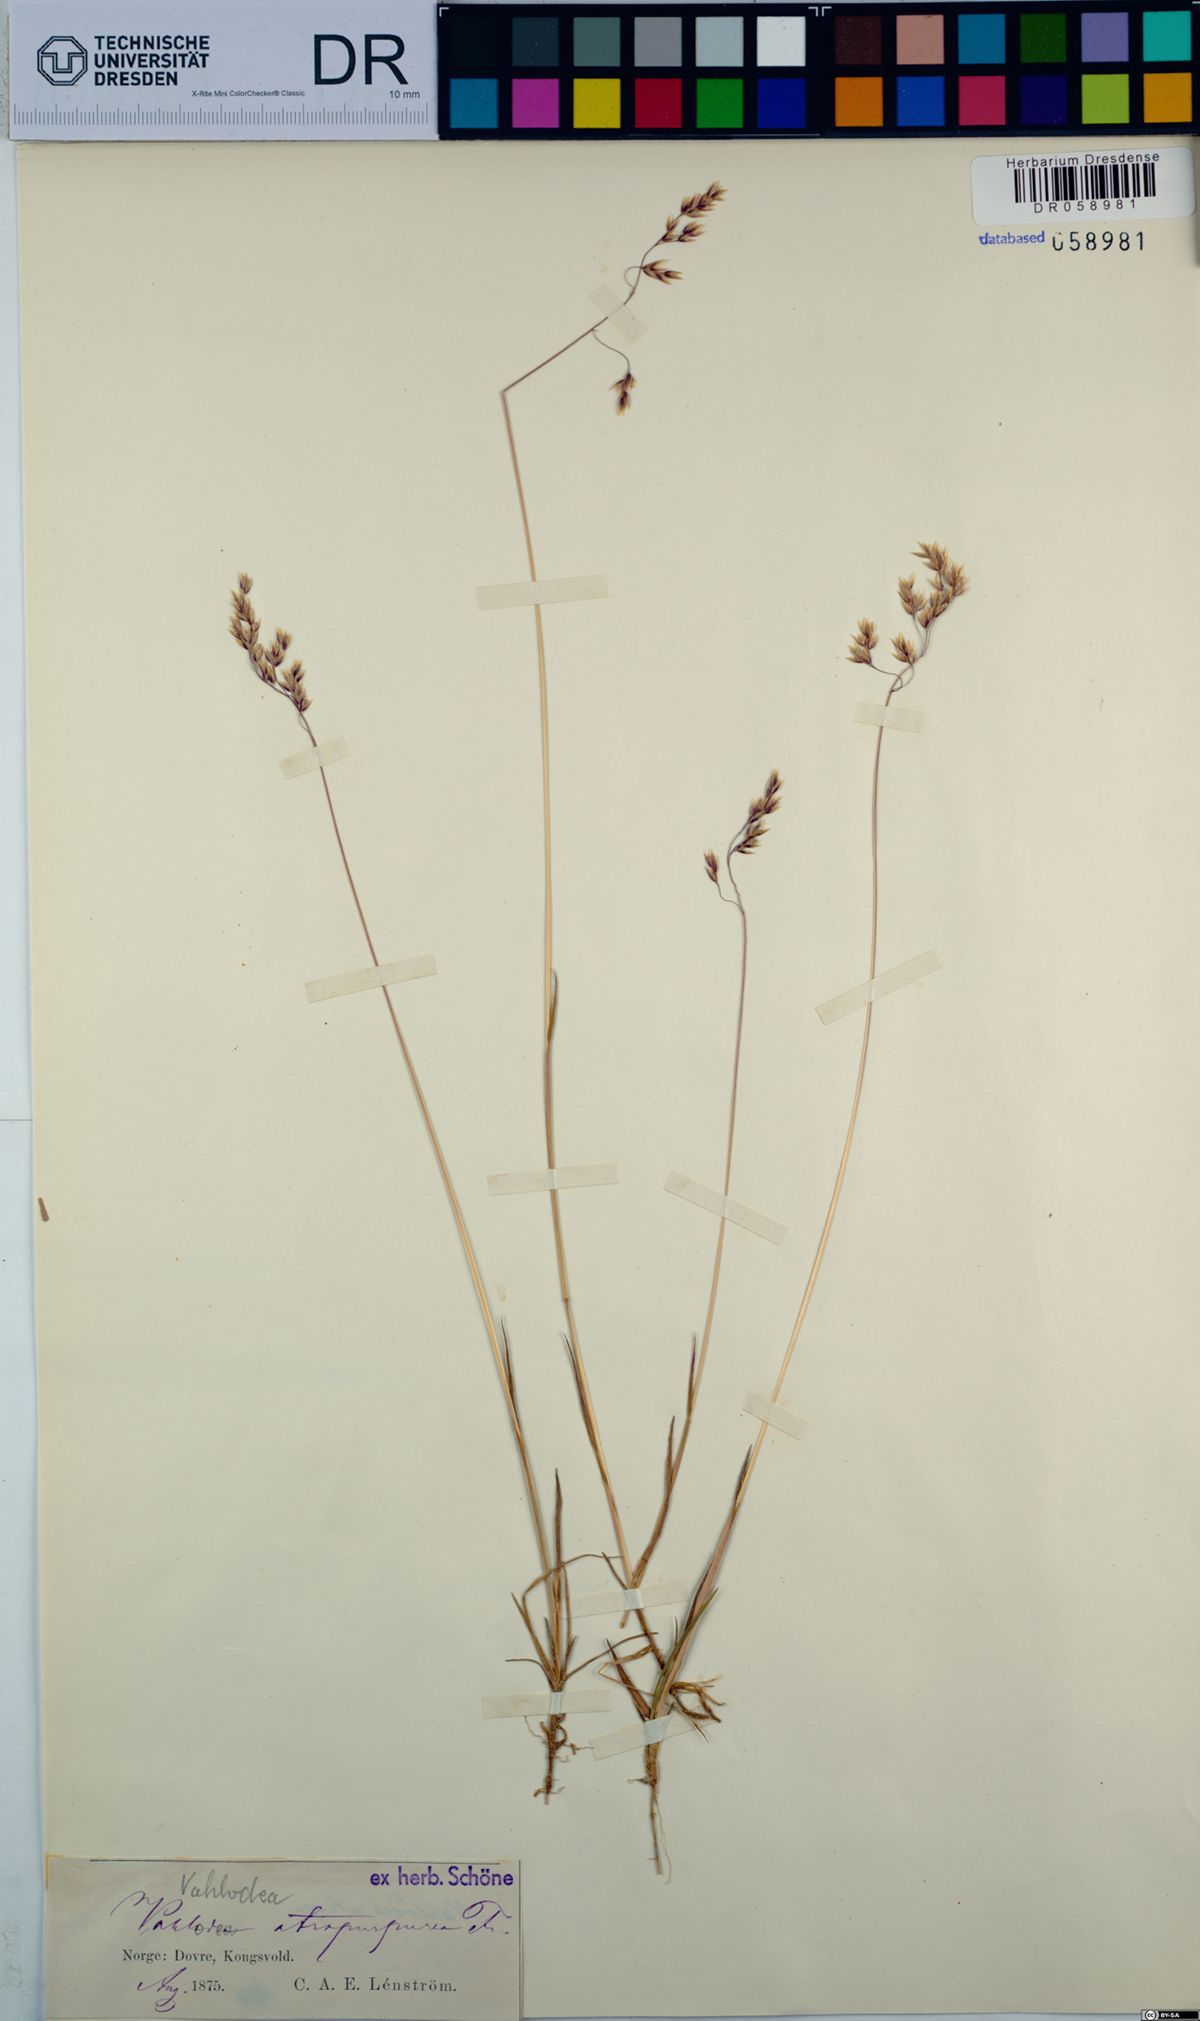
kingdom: Plantae
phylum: Tracheophyta
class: Liliopsida
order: Poales
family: Poaceae
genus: Vahlodea
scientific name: Vahlodea atropurpurea
